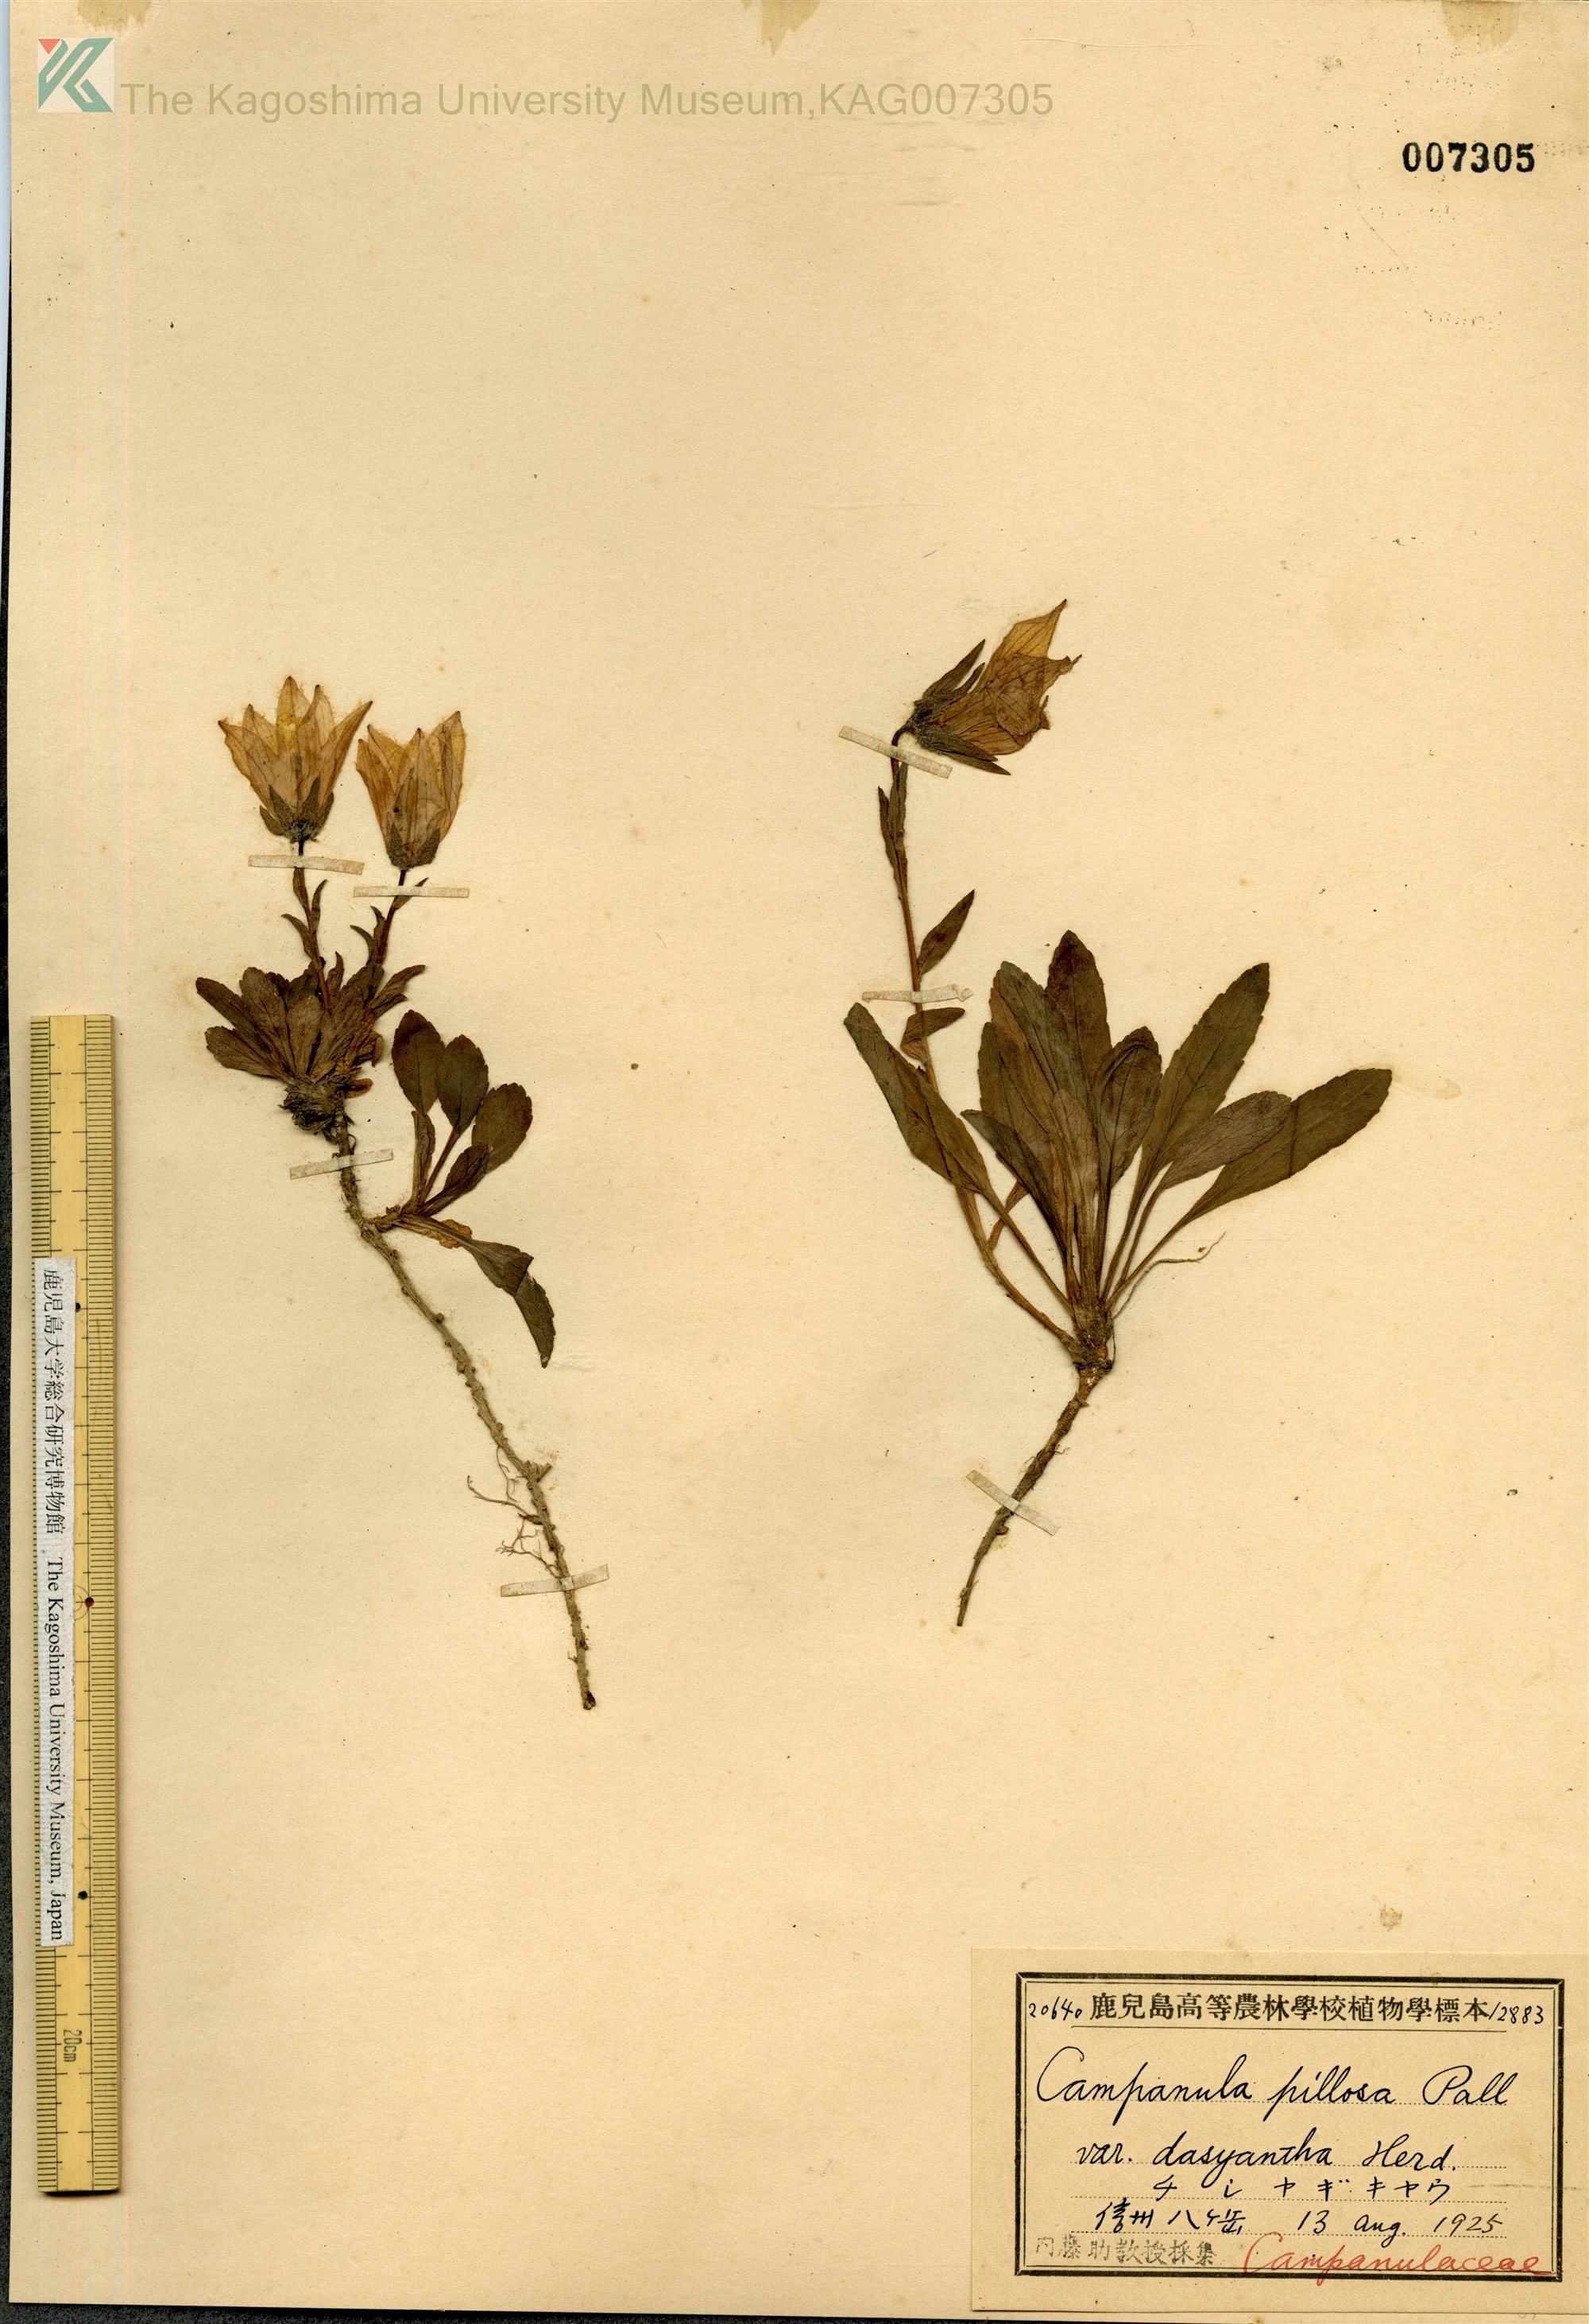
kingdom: Plantae
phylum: Tracheophyta
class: Magnoliopsida
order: Asterales
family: Campanulaceae
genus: Campanula
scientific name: Campanula dasyantha
